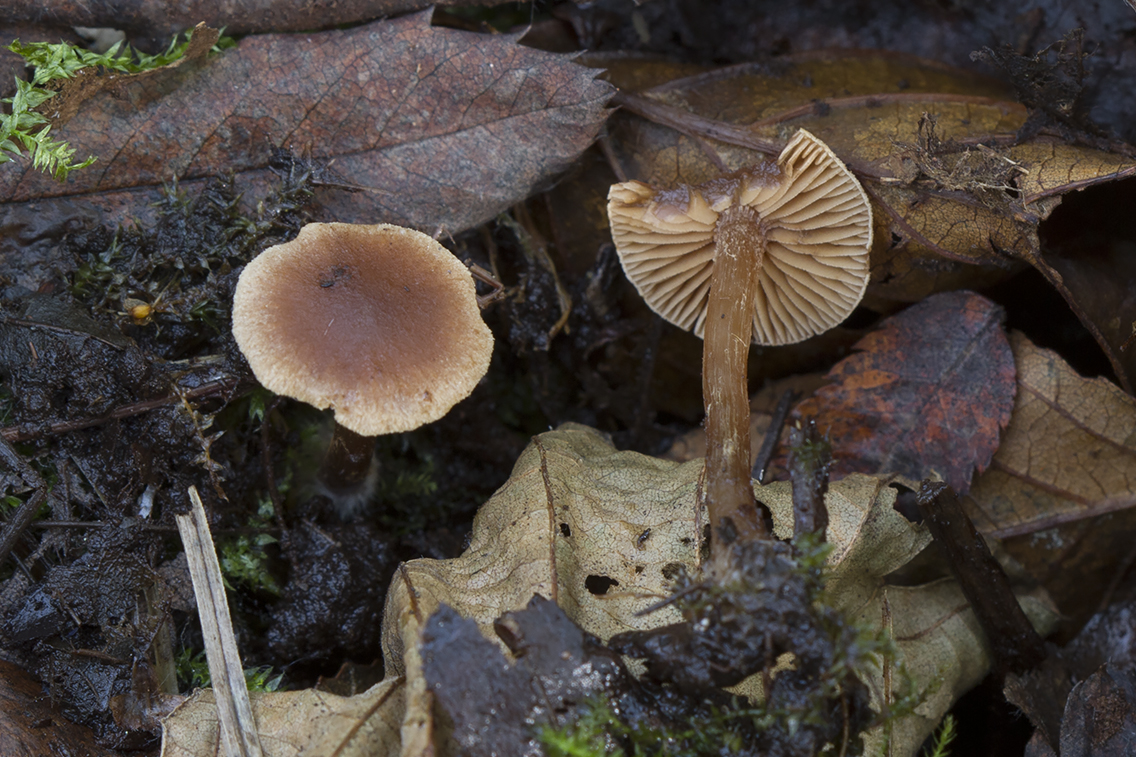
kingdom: Fungi
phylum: Basidiomycota
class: Agaricomycetes
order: Agaricales
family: Hymenogastraceae
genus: Naucoria
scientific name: Naucoria sphagneti
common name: lysrandet knaphat
